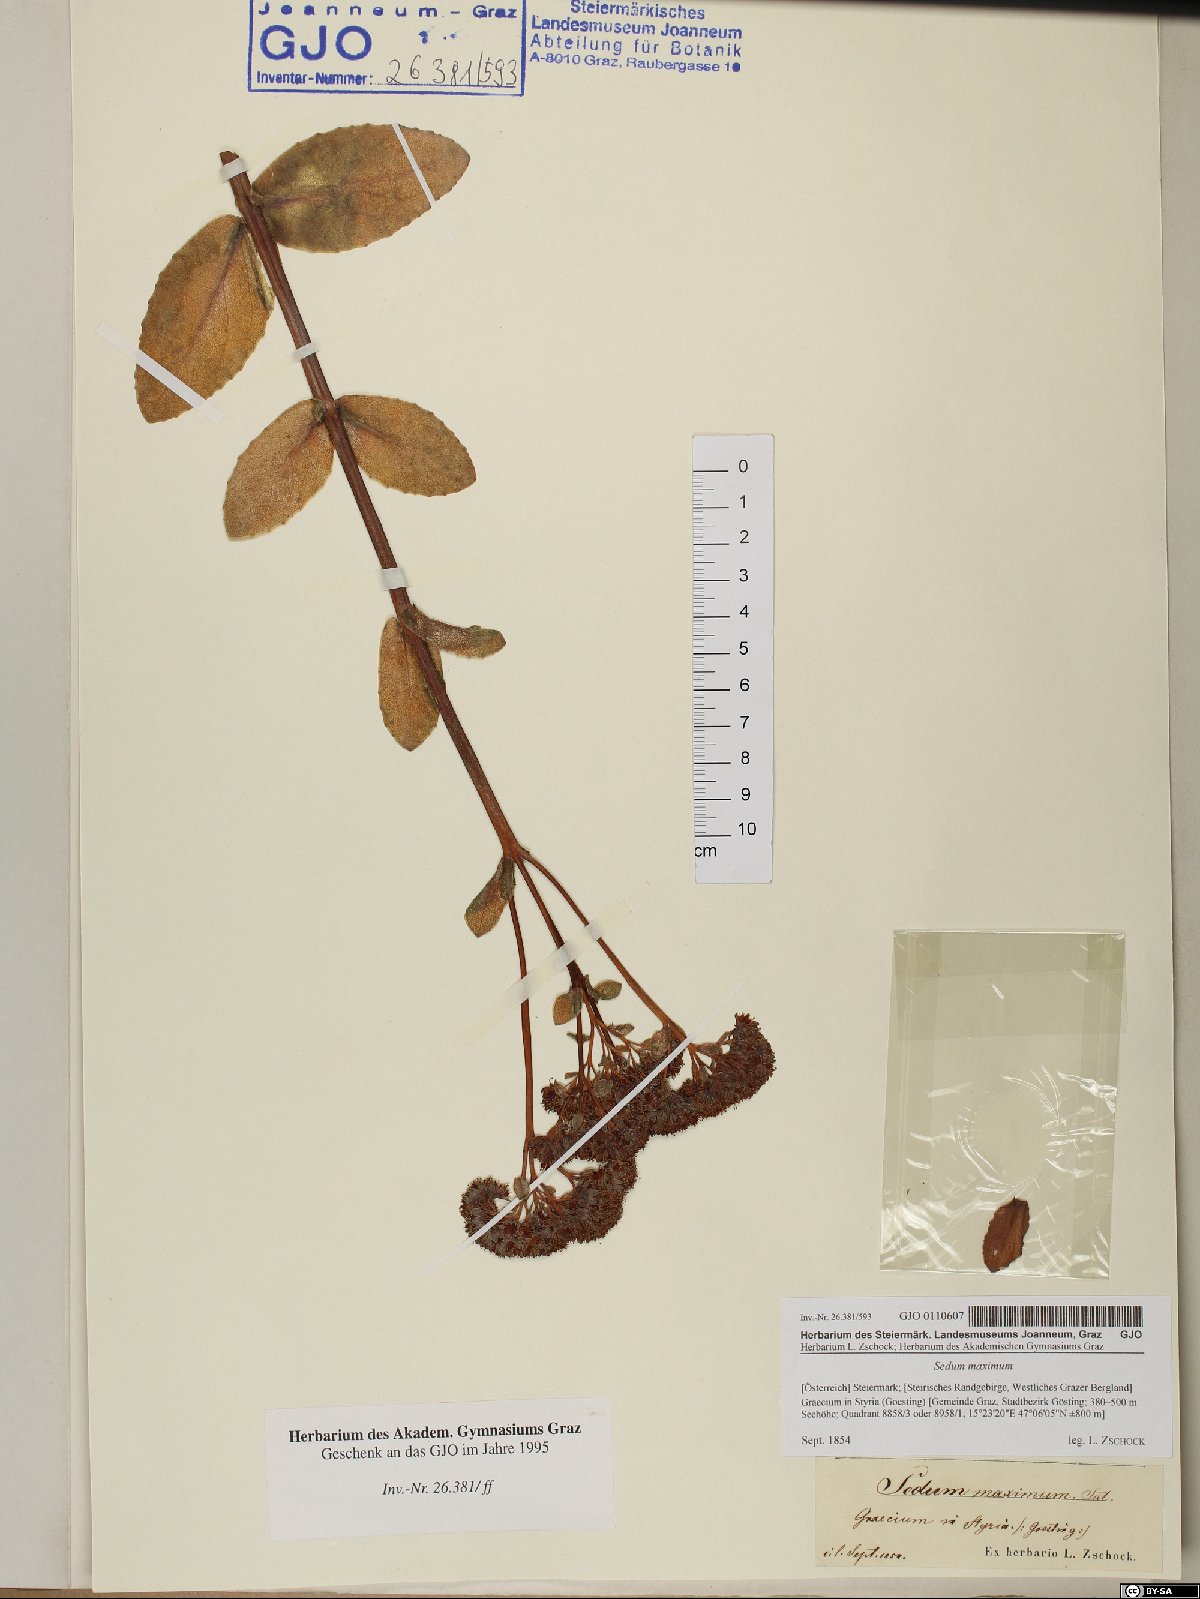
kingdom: Plantae
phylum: Tracheophyta
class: Magnoliopsida
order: Saxifragales
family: Crassulaceae
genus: Hylotelephium
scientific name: Hylotelephium maximum
